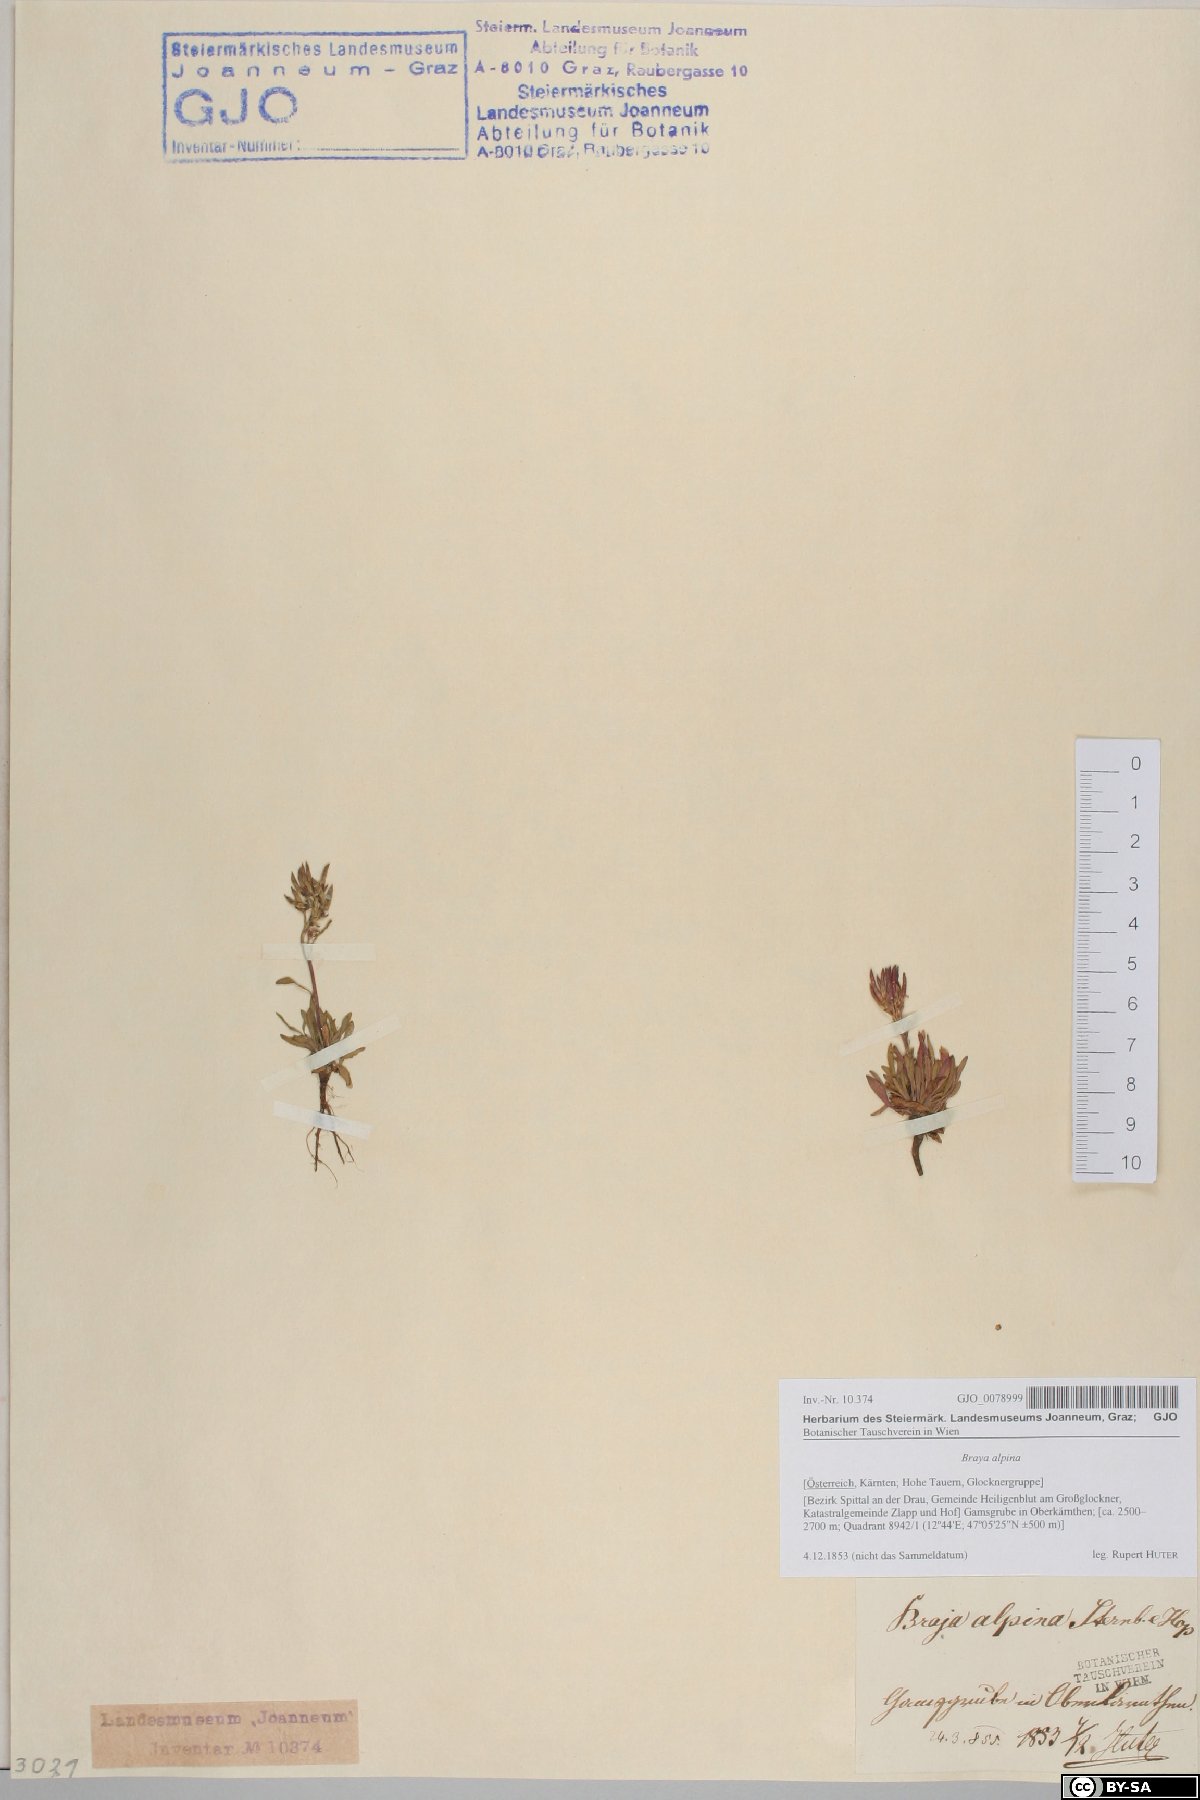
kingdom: Plantae
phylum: Tracheophyta
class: Magnoliopsida
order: Brassicales
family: Brassicaceae
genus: Braya
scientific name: Braya alpina
